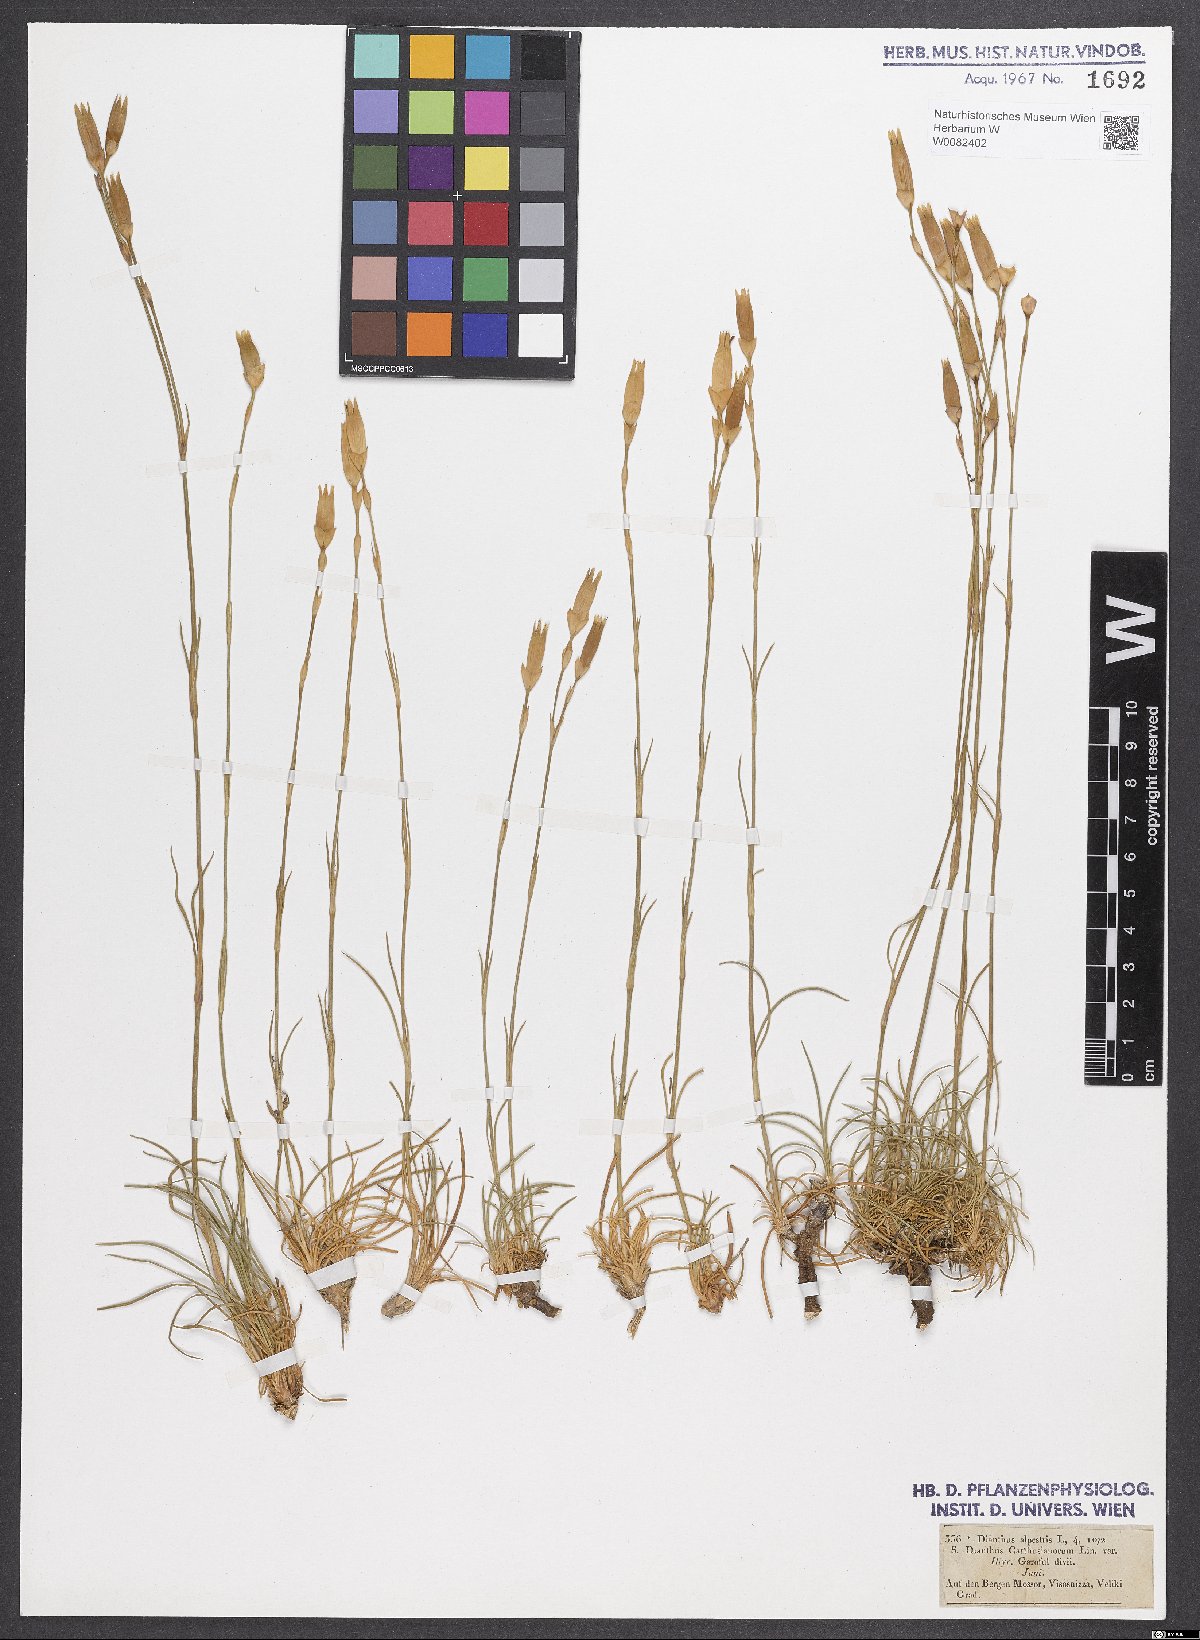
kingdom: Plantae
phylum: Tracheophyta
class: Magnoliopsida
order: Caryophyllales
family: Caryophyllaceae
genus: Dianthus
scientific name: Dianthus carthusianorum
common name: Carthusian pink
